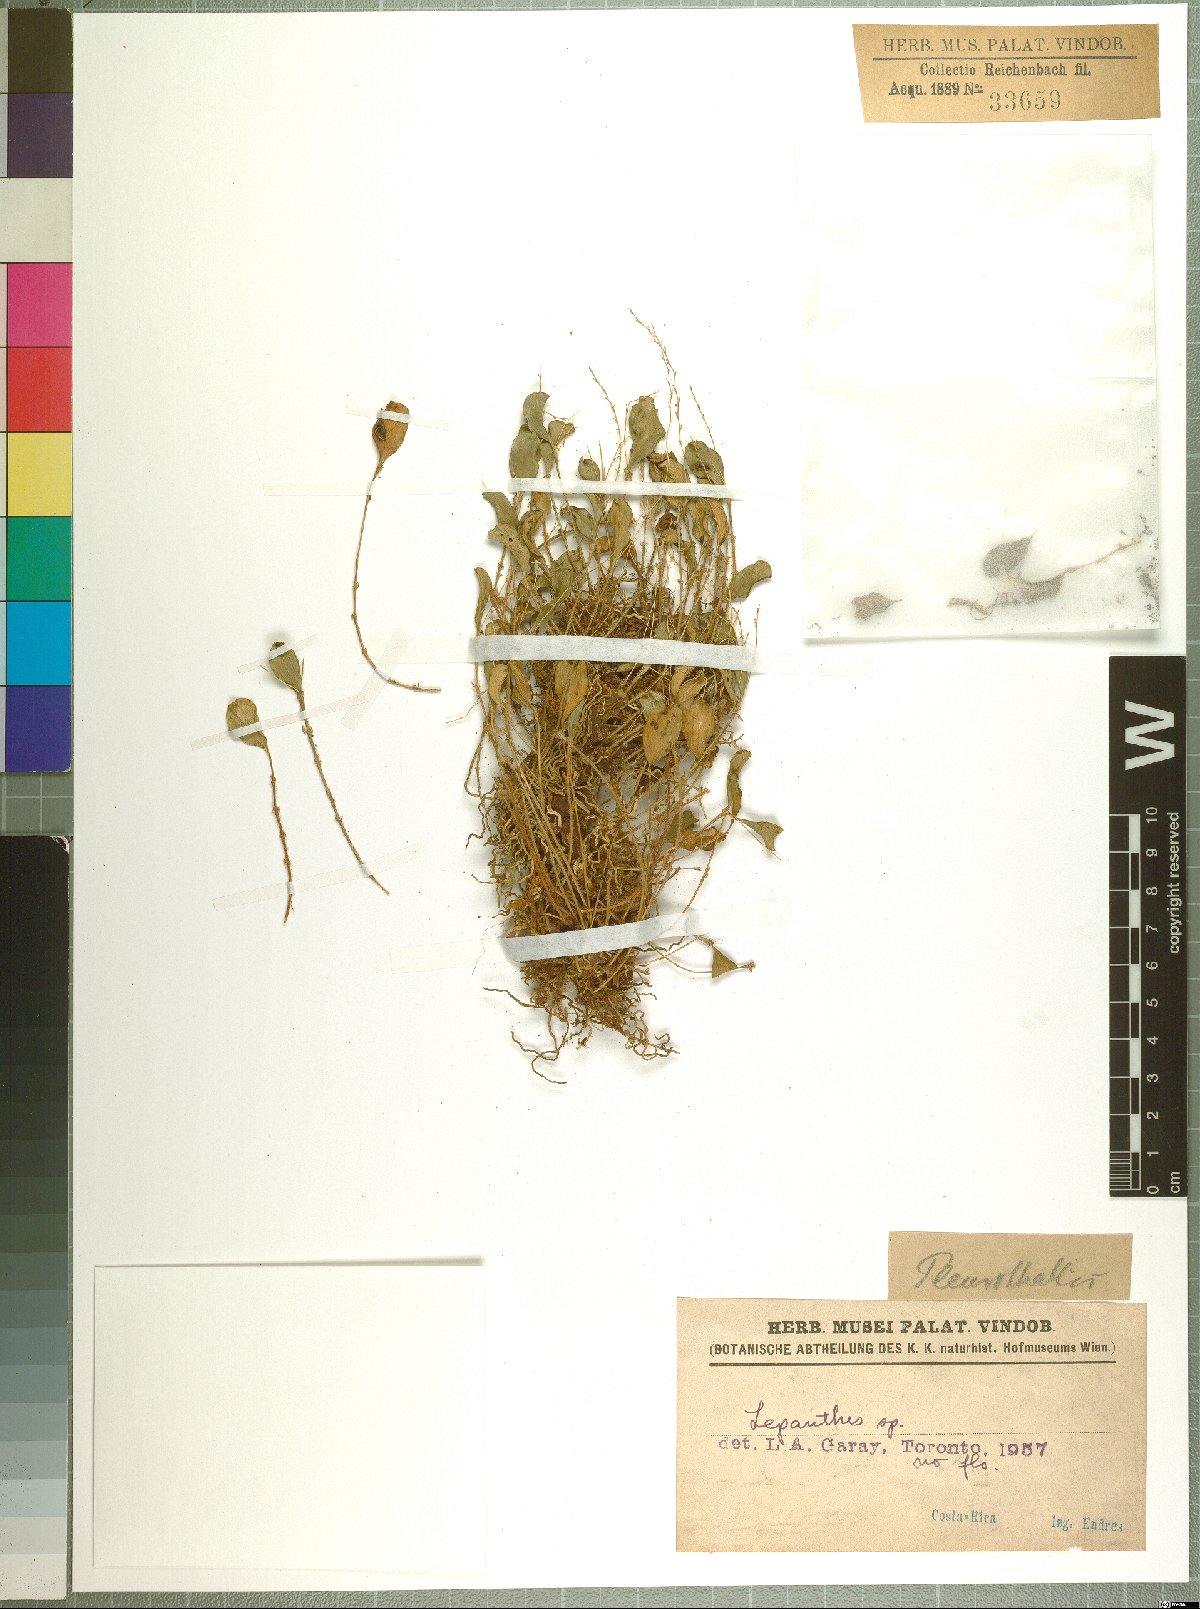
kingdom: Plantae
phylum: Tracheophyta
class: Liliopsida
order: Asparagales
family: Orchidaceae
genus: Lepanthes
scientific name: Lepanthes
